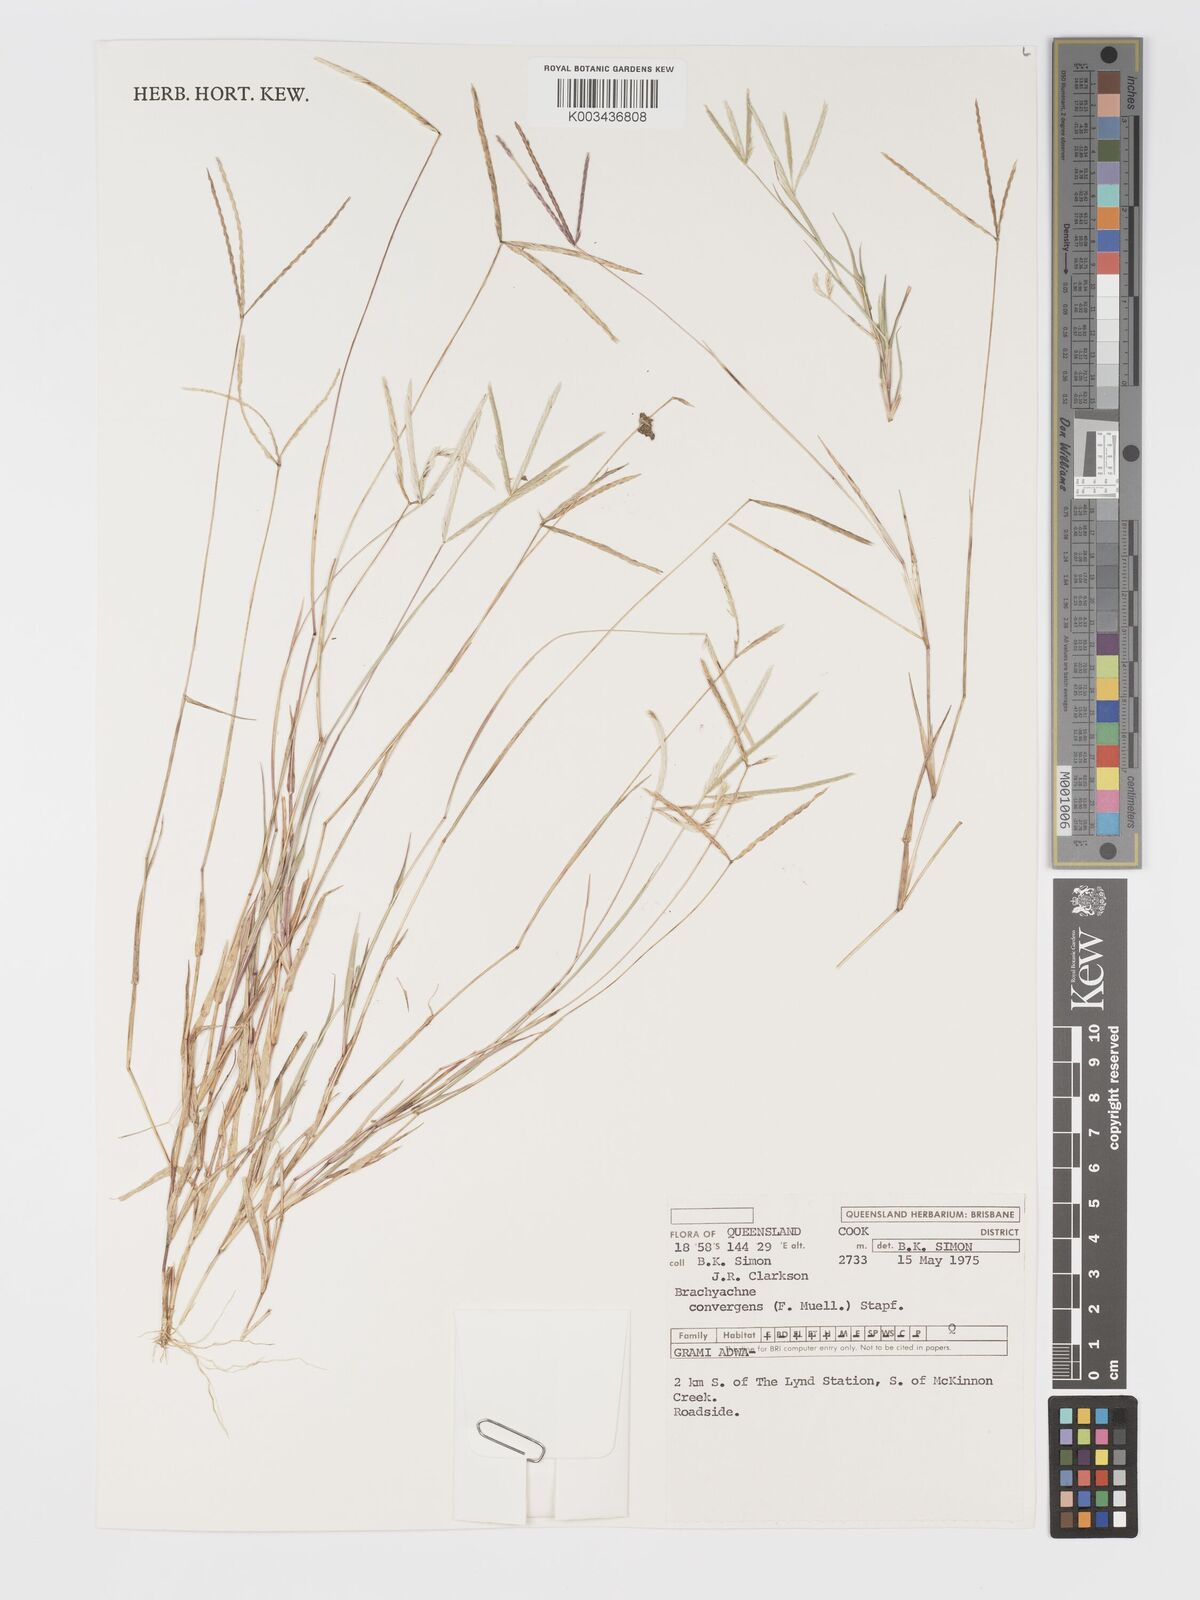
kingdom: Plantae
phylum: Tracheophyta
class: Liliopsida
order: Poales
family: Poaceae
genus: Cynodon
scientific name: Cynodon convergens
